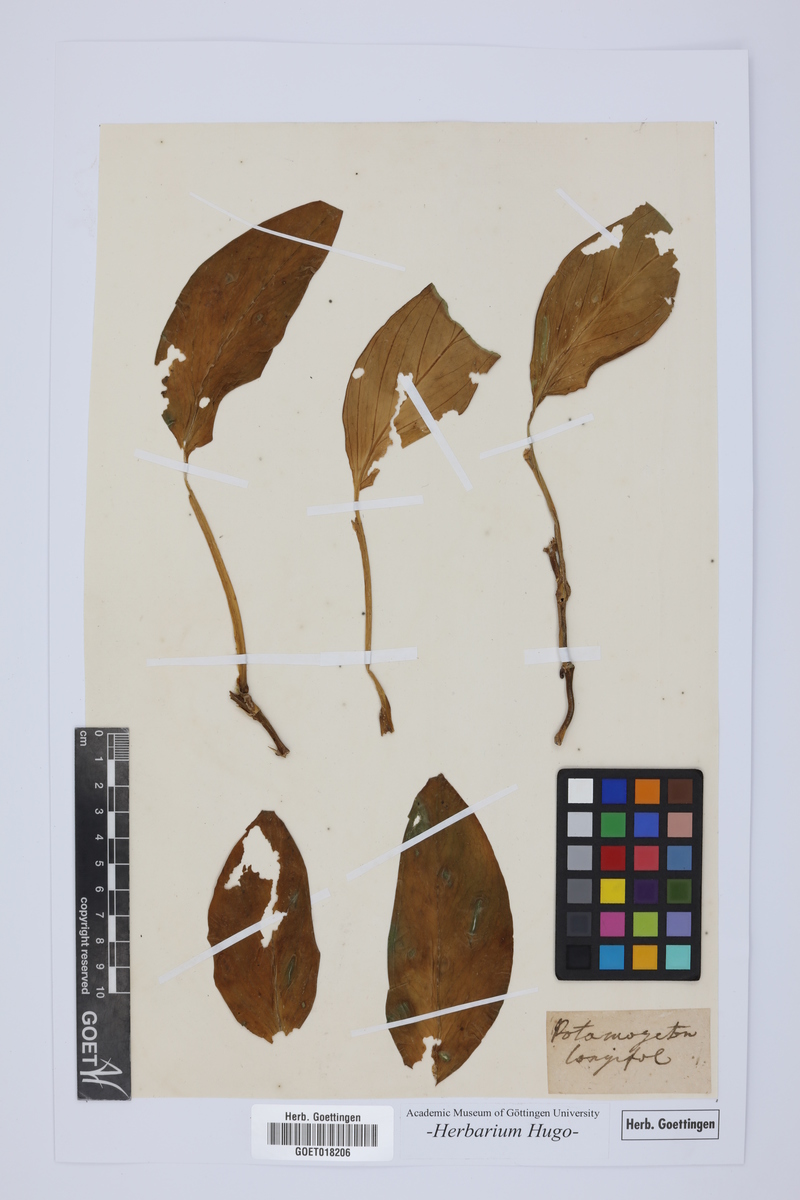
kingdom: Plantae
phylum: Tracheophyta
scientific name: Tracheophyta
